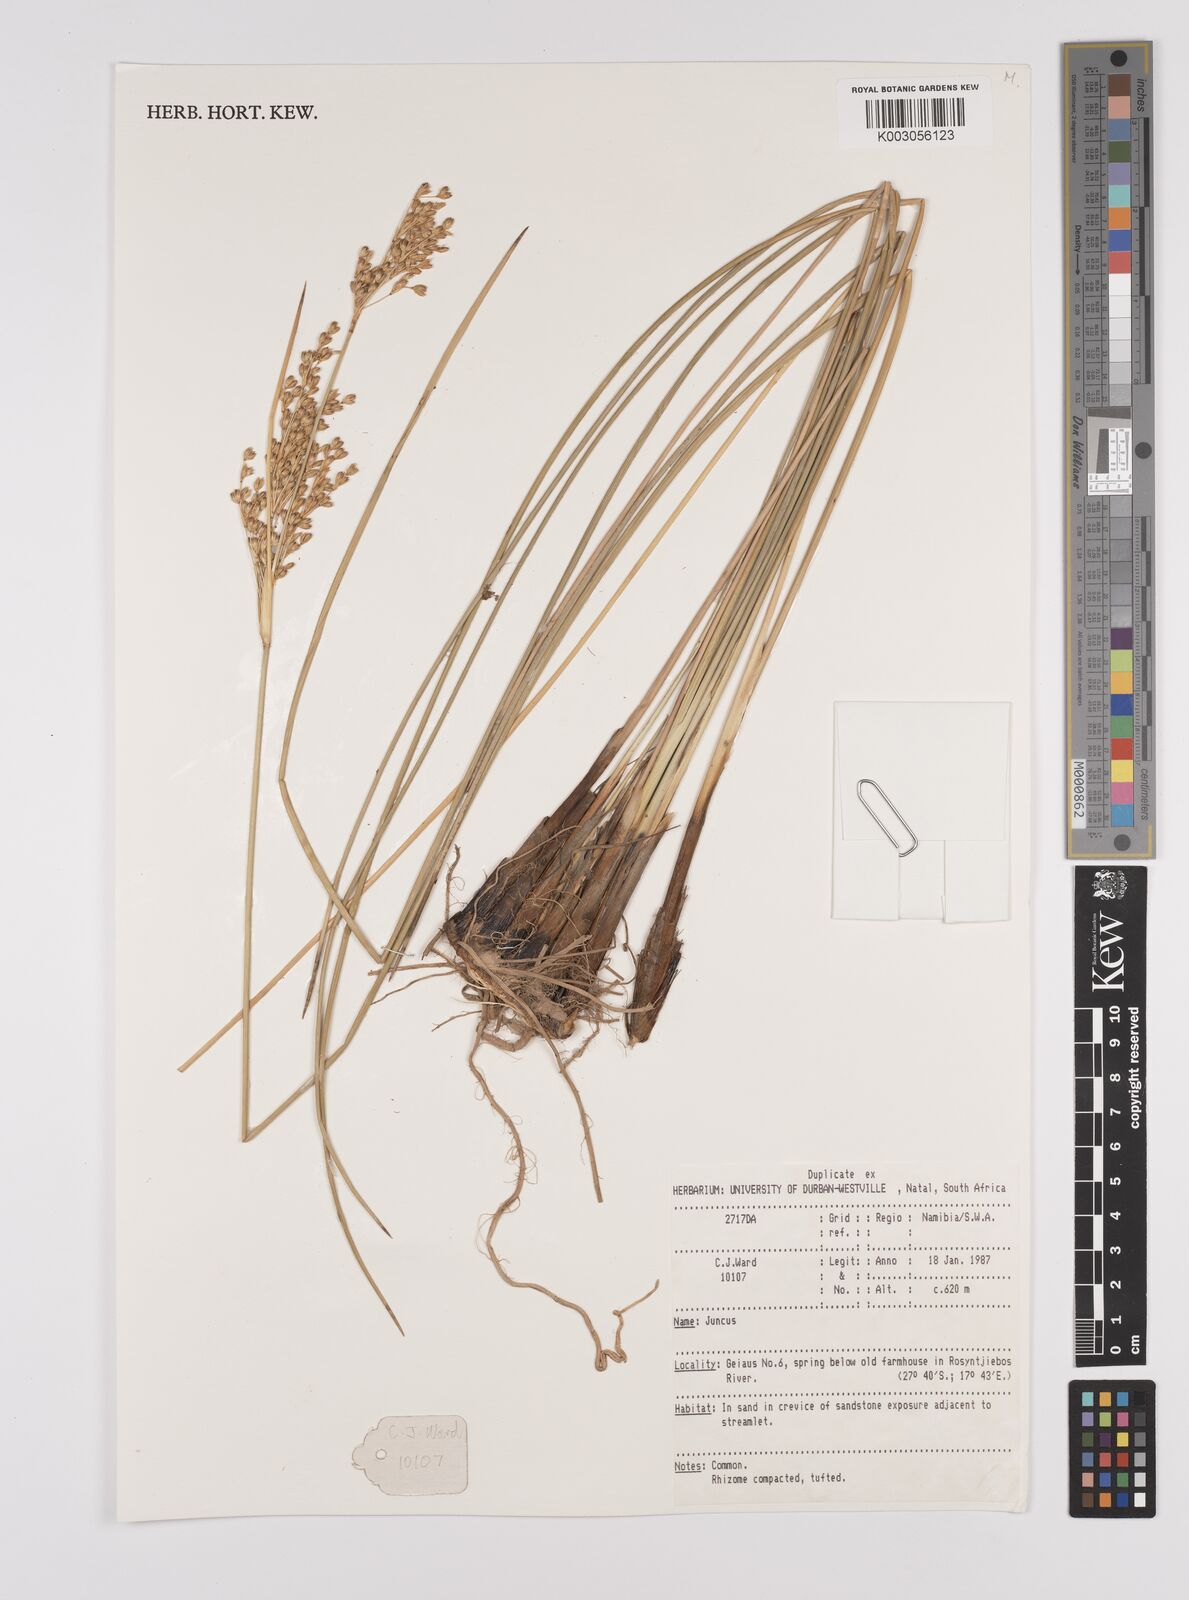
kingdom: Plantae
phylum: Tracheophyta
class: Liliopsida
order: Poales
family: Juncaceae
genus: Juncus
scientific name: Juncus
